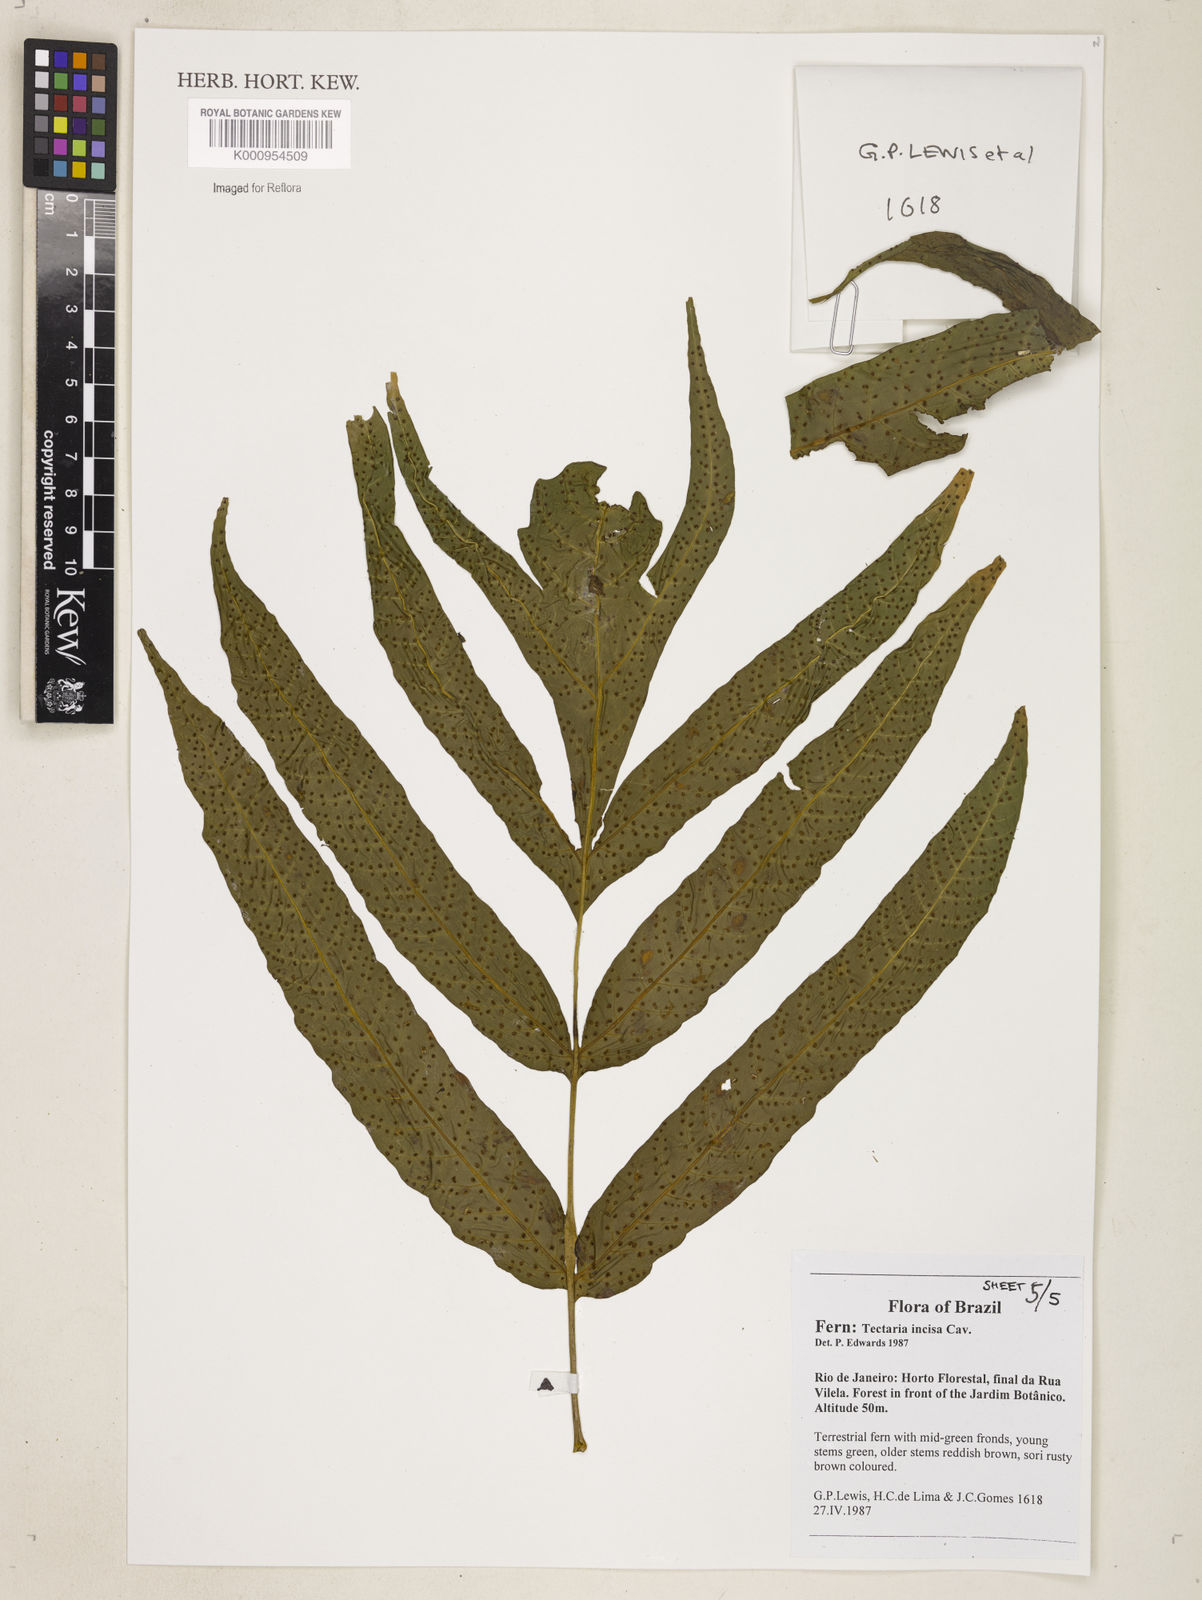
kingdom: Plantae
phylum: Tracheophyta
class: Polypodiopsida
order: Polypodiales
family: Tectariaceae
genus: Tectaria
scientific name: Tectaria incisa
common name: Incised halberd fern
